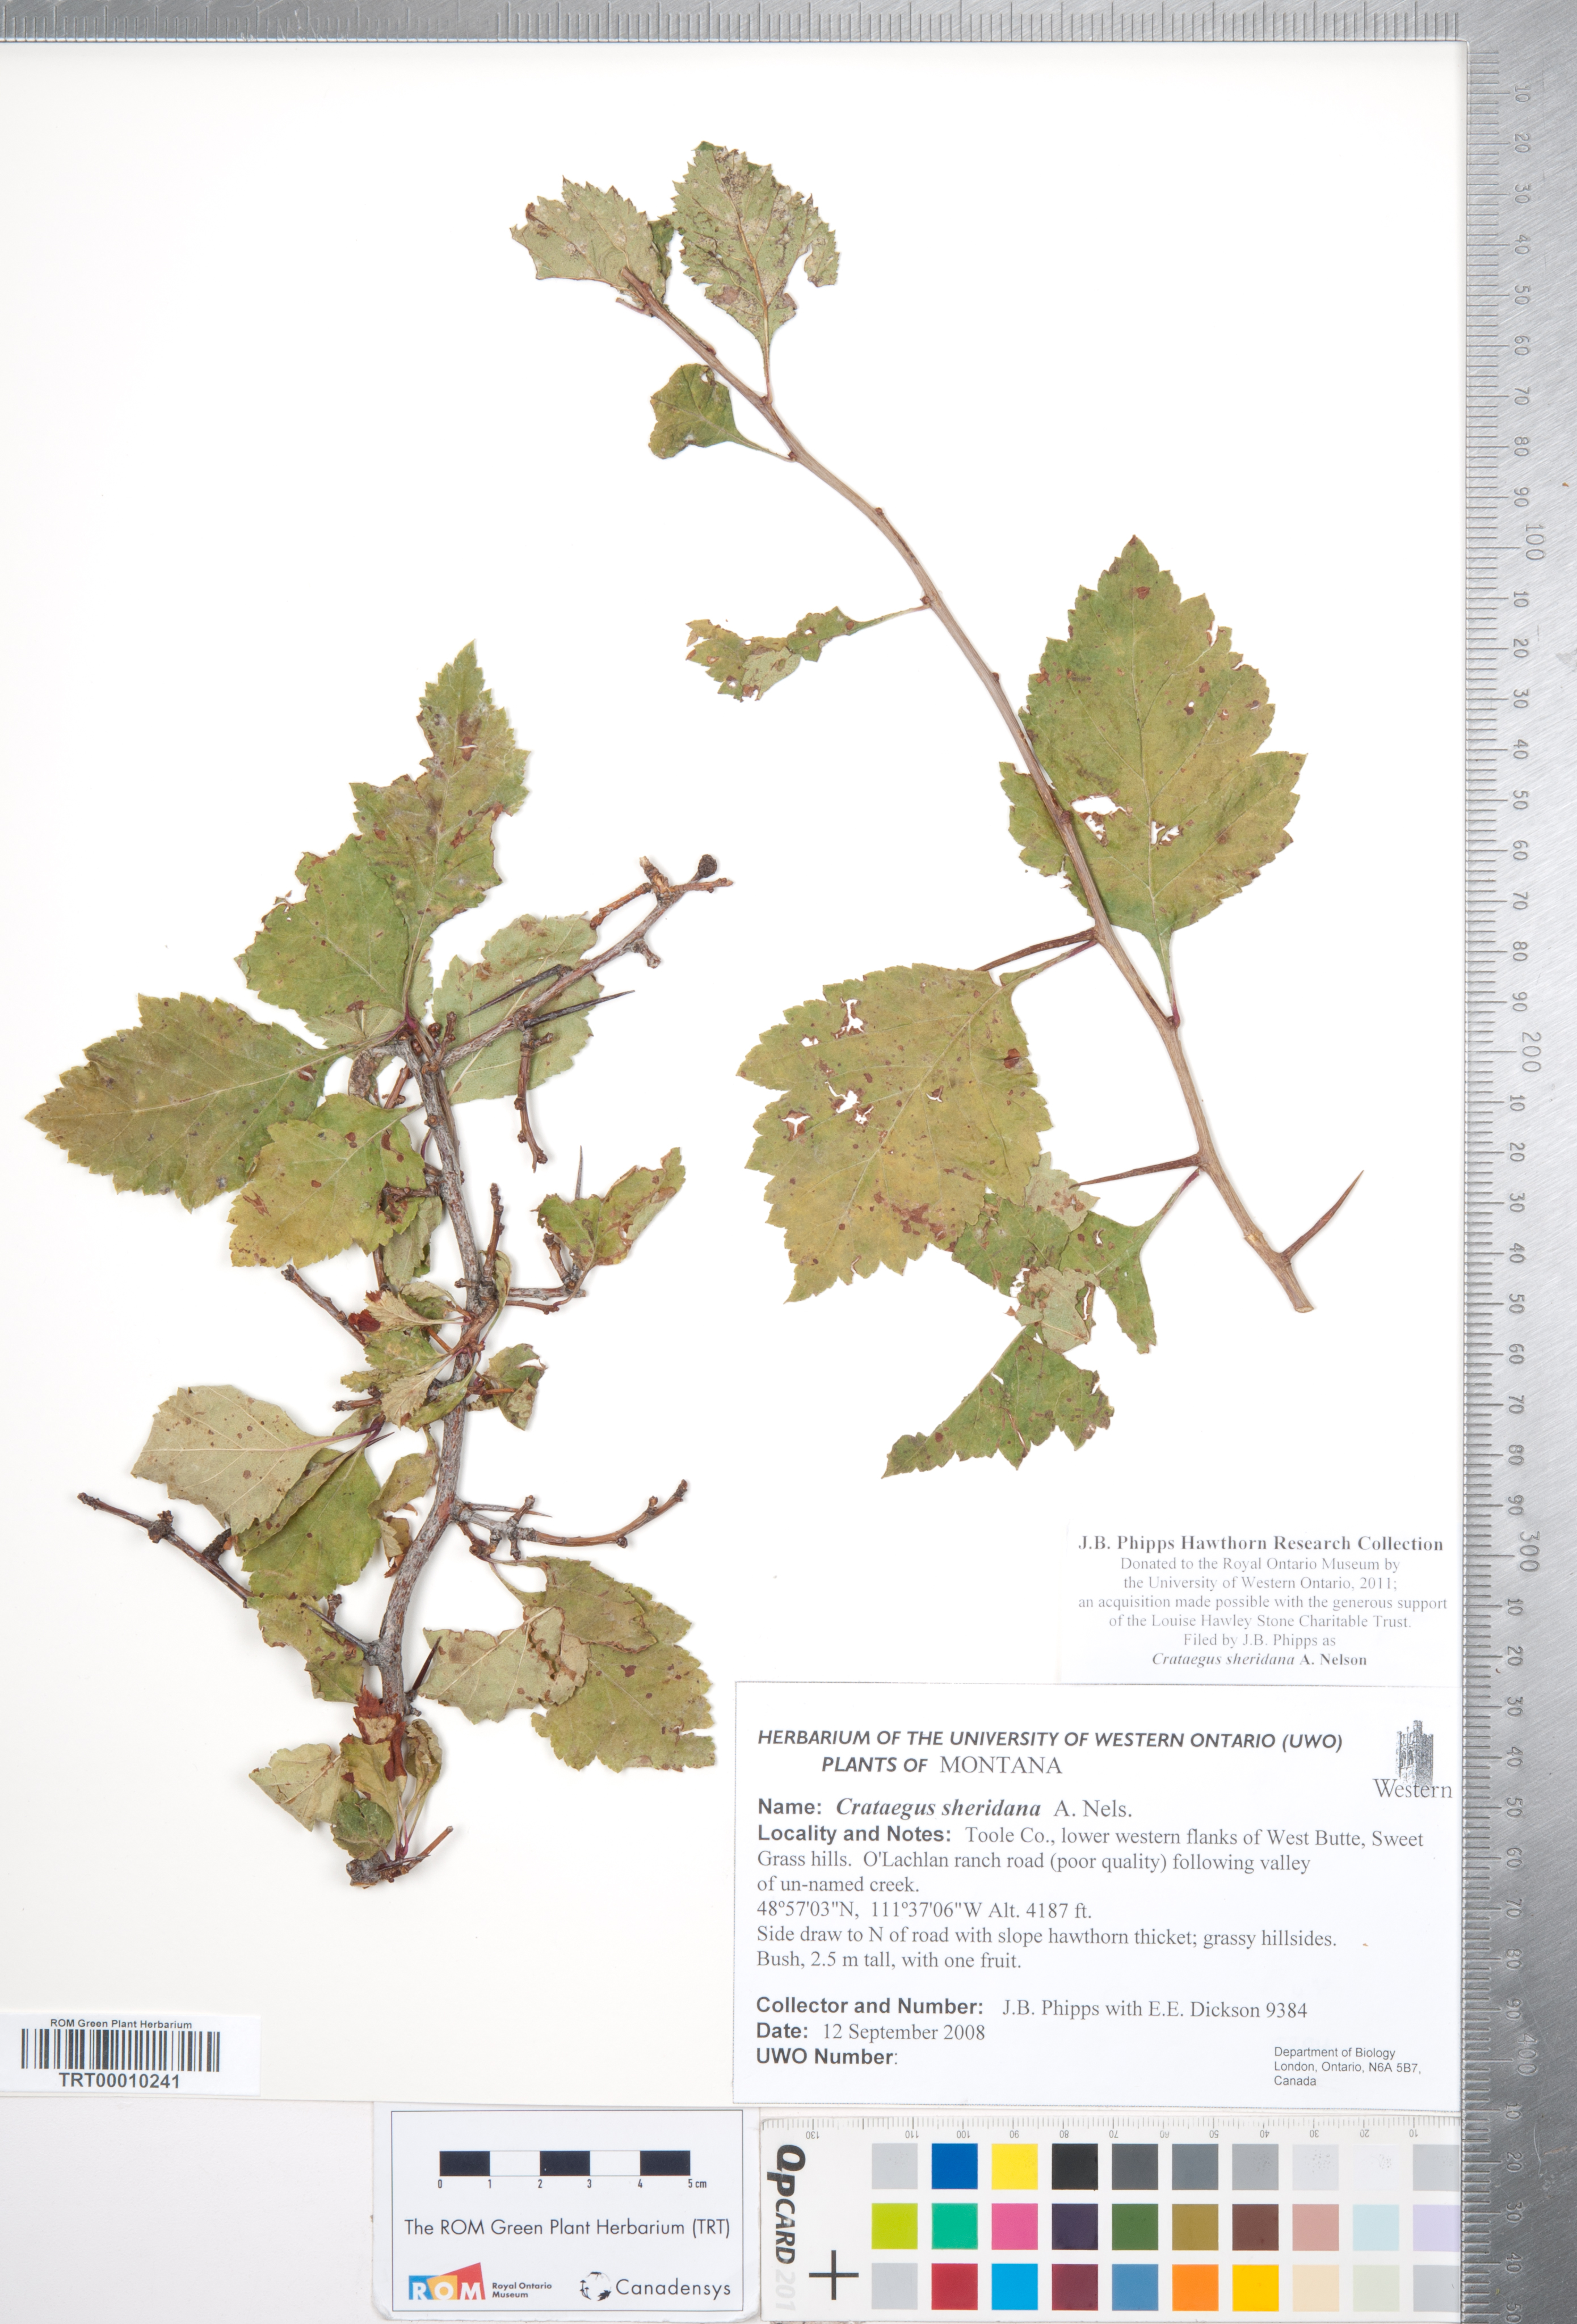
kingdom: Plantae
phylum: Tracheophyta
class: Magnoliopsida
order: Rosales
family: Rosaceae
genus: Crataegus
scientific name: Crataegus chrysocarpa
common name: Fire-berry hawthorn
